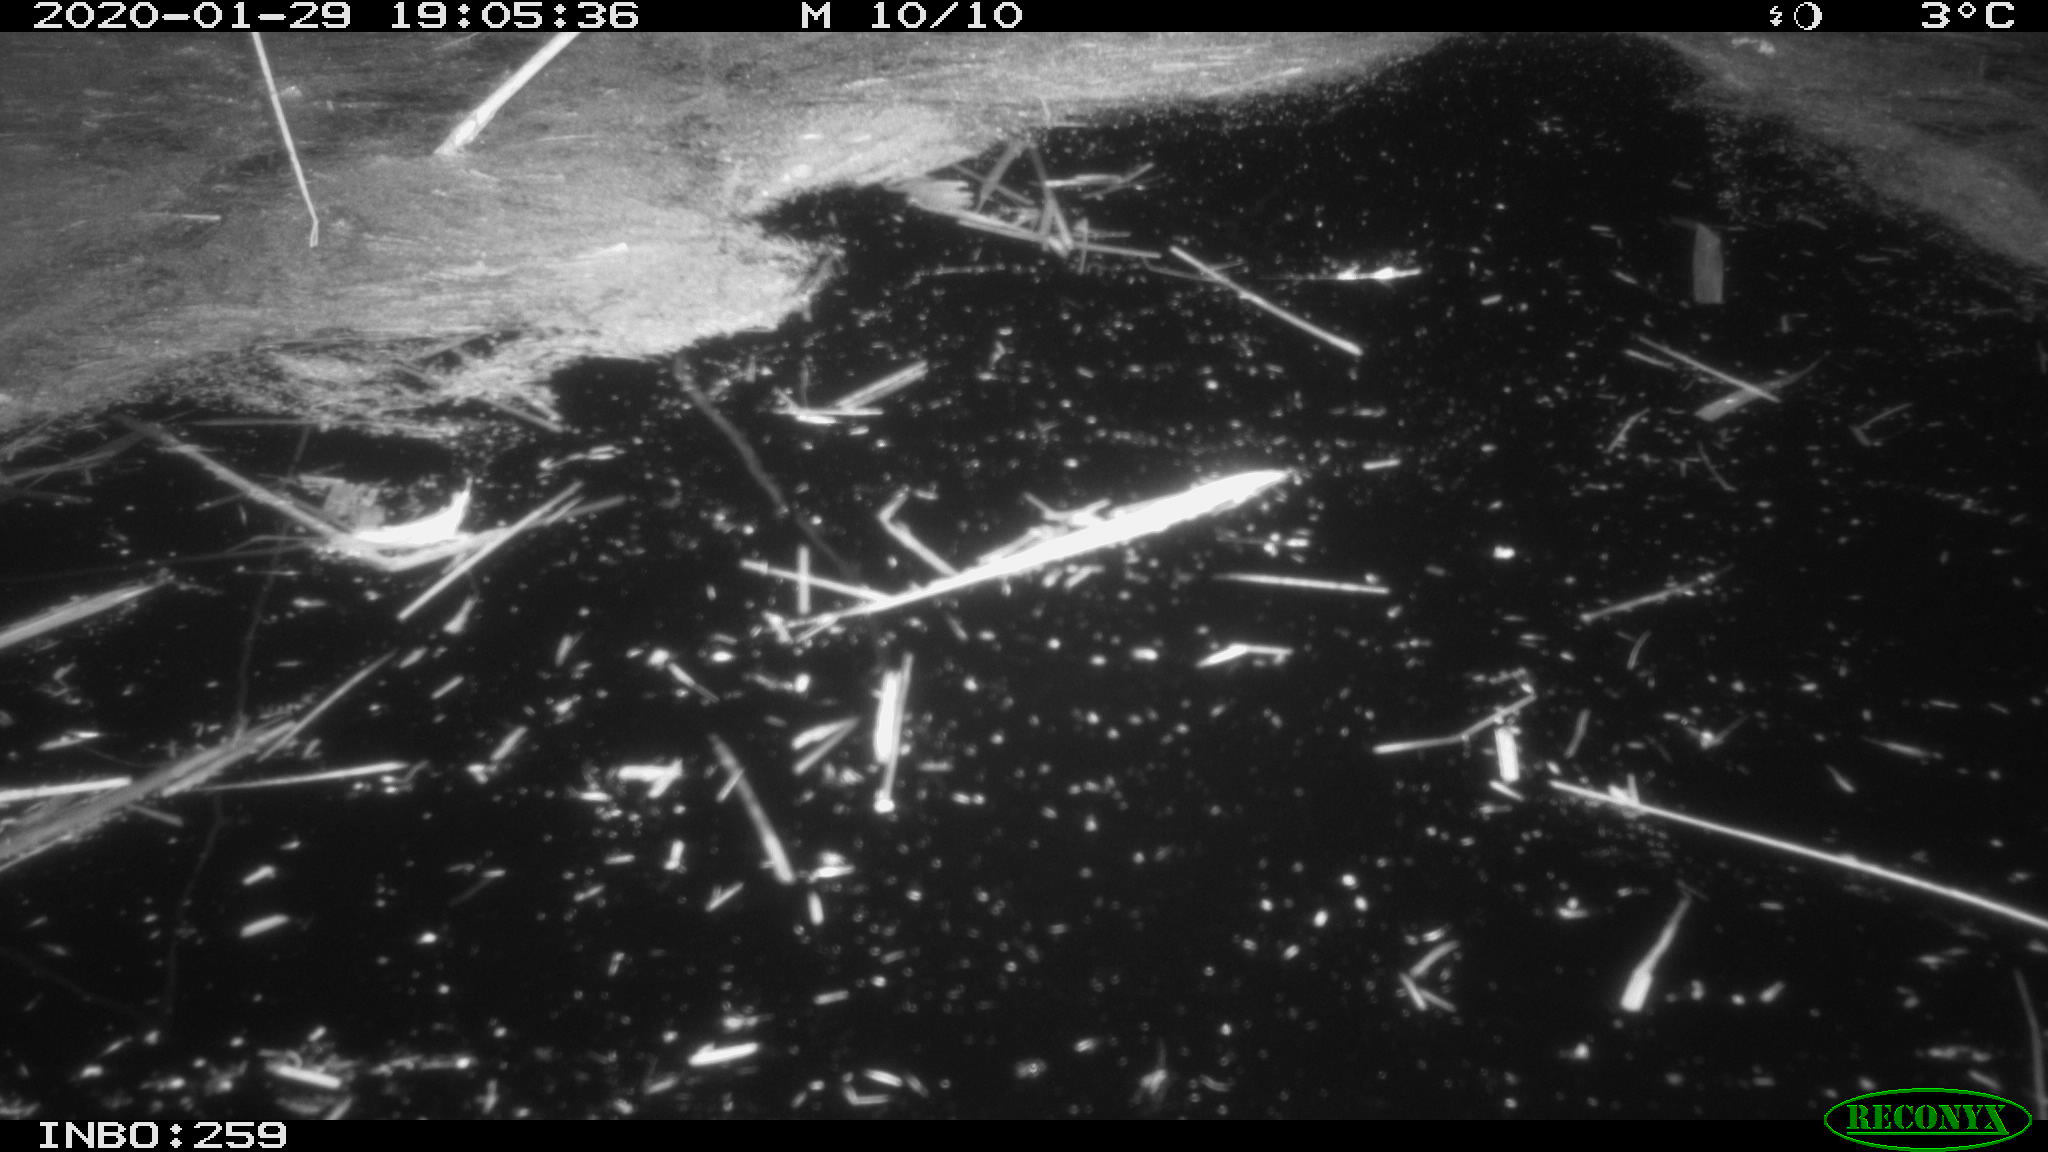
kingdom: Animalia
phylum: Chordata
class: Mammalia
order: Rodentia
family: Cricetidae
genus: Ondatra
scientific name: Ondatra zibethicus
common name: Muskrat
